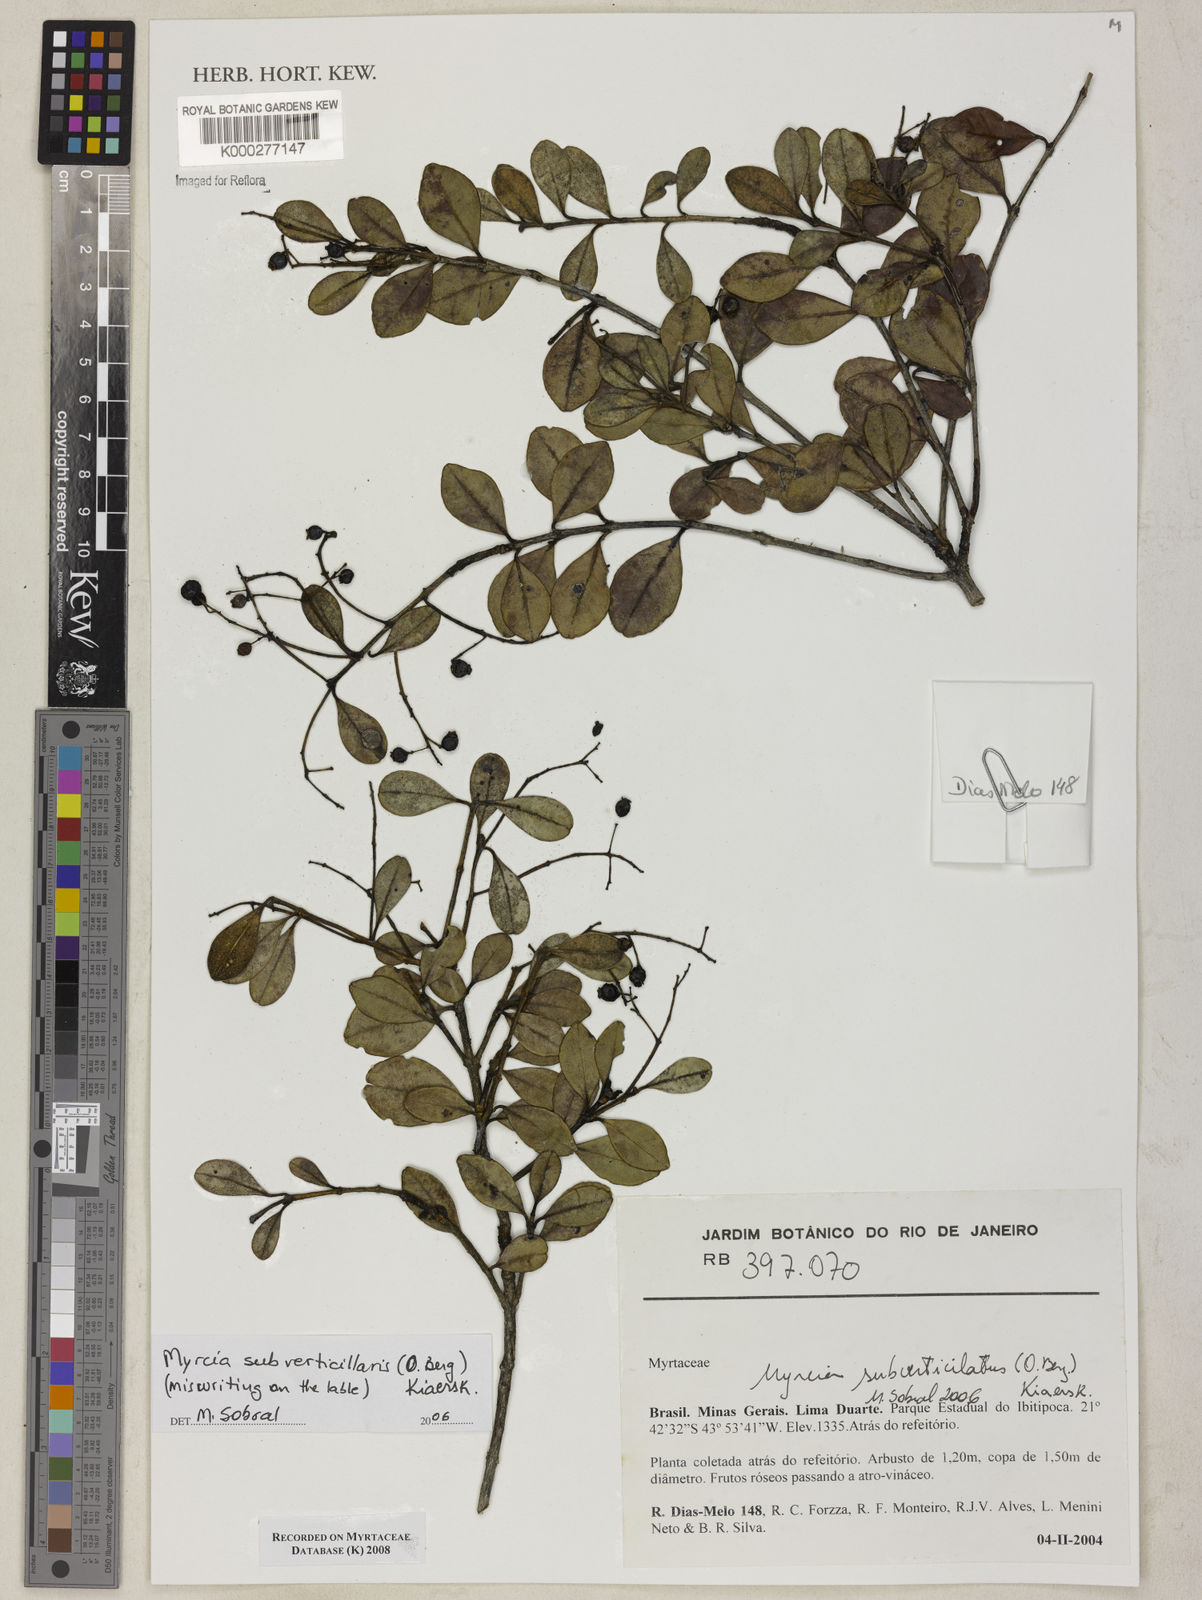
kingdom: Plantae
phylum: Tracheophyta
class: Magnoliopsida
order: Myrtales
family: Myrtaceae
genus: Myrcia
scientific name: Myrcia subverticillaris
